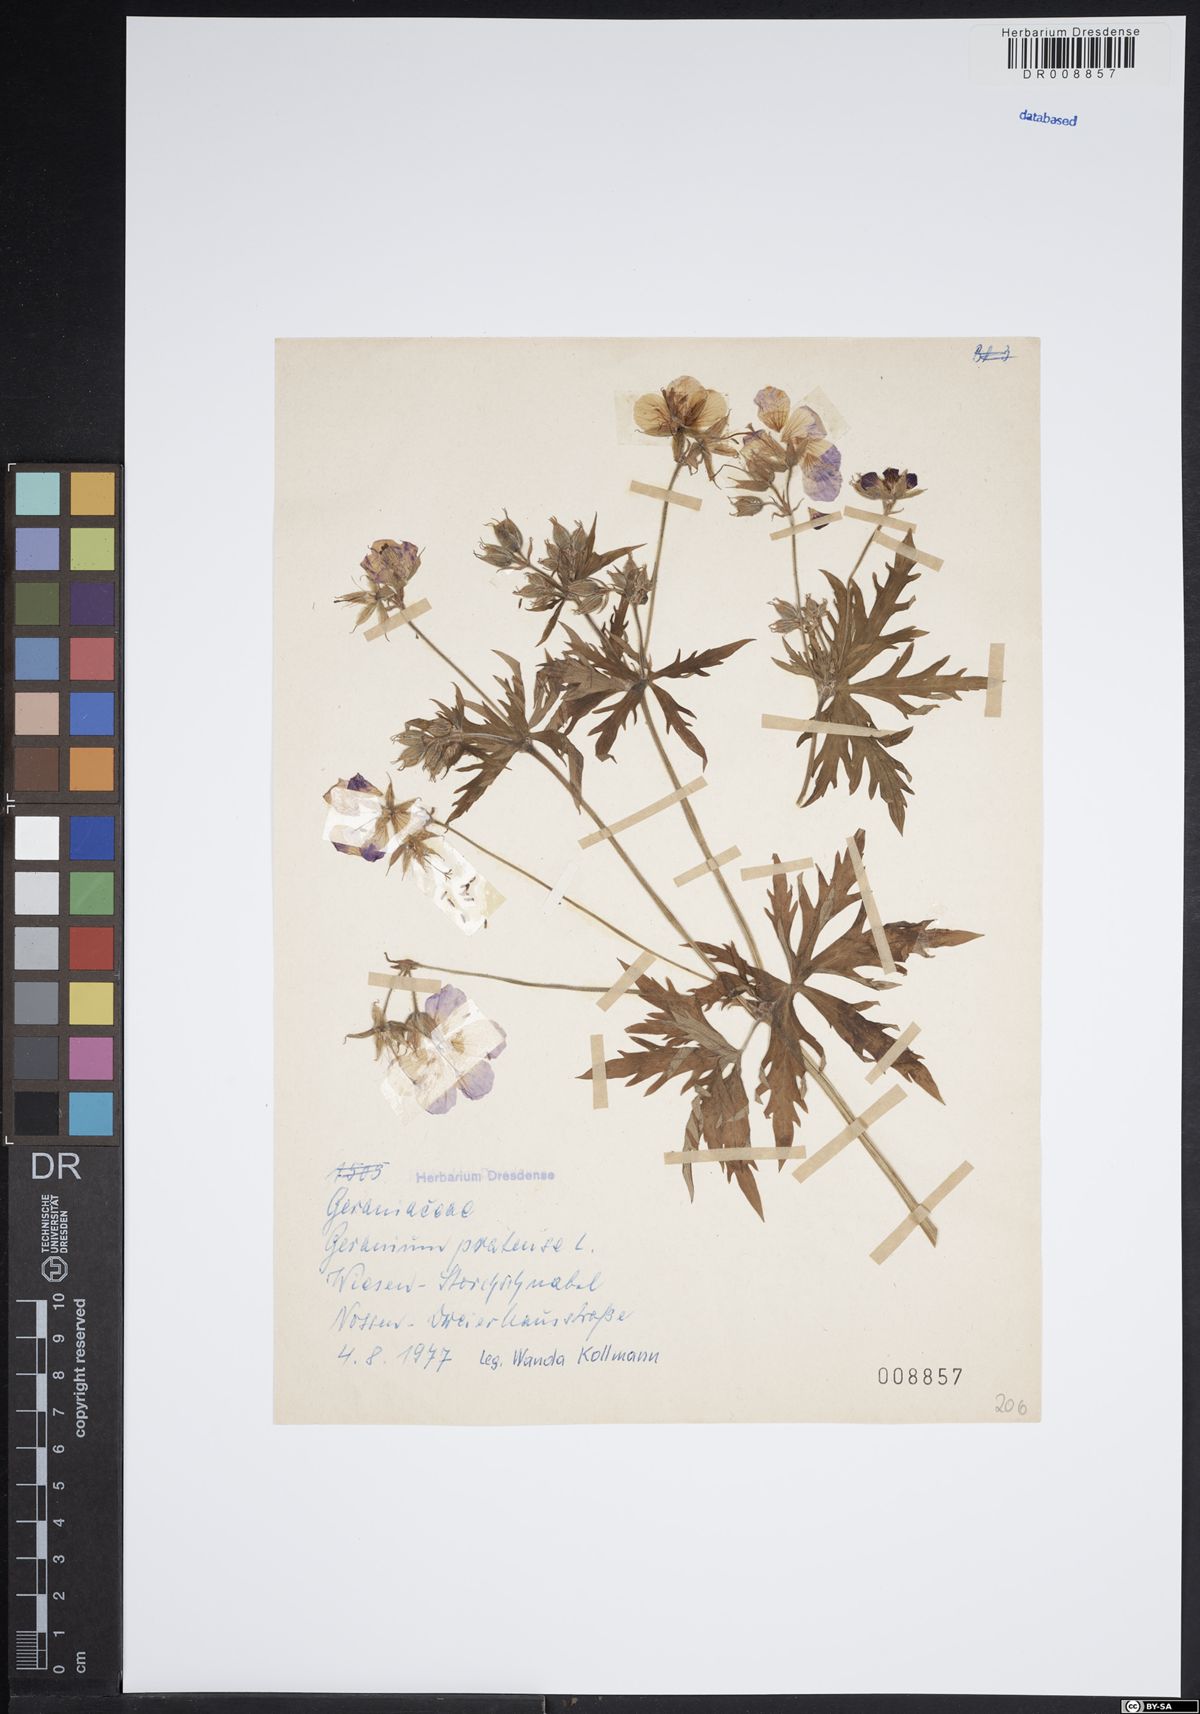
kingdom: Plantae
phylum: Tracheophyta
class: Magnoliopsida
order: Geraniales
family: Geraniaceae
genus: Geranium
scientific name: Geranium pratense
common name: Meadow crane's-bill
